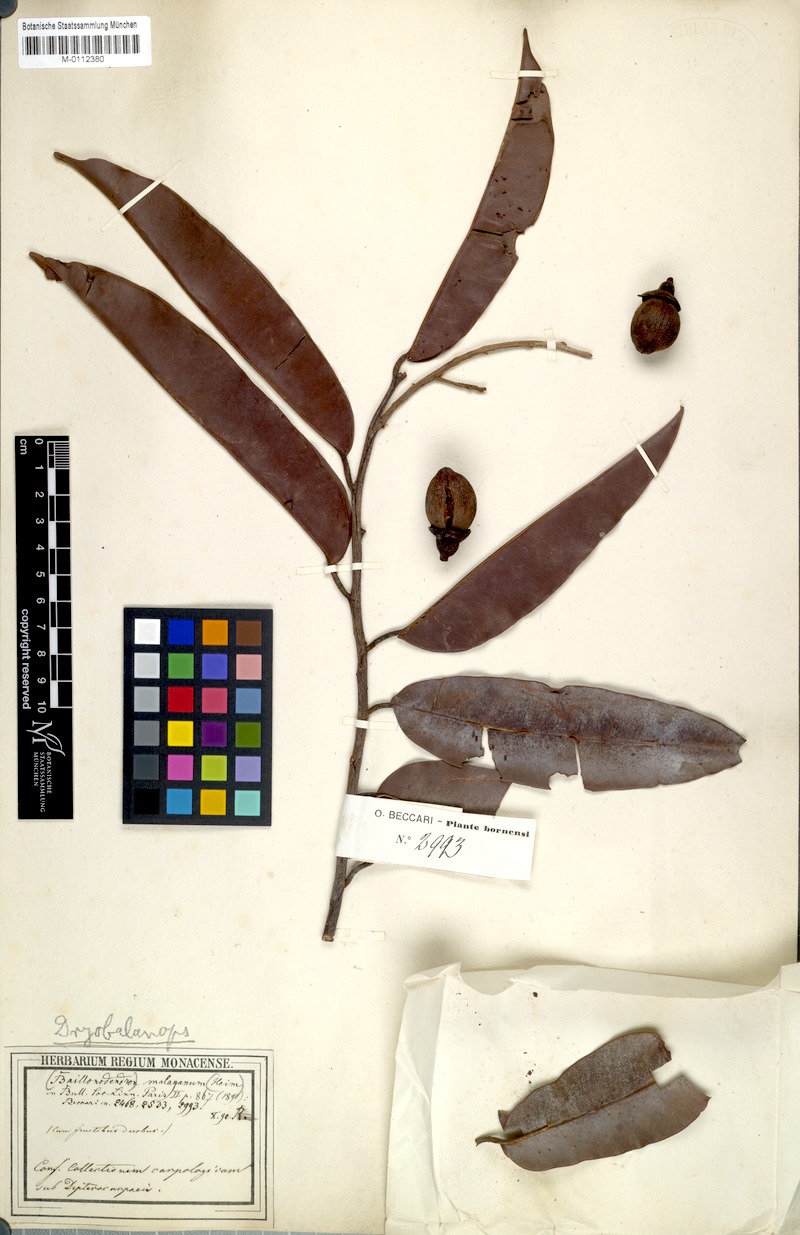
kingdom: Plantae
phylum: Tracheophyta
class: Magnoliopsida
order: Malvales
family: Dipterocarpaceae
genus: Dryobalanops
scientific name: Dryobalanops
